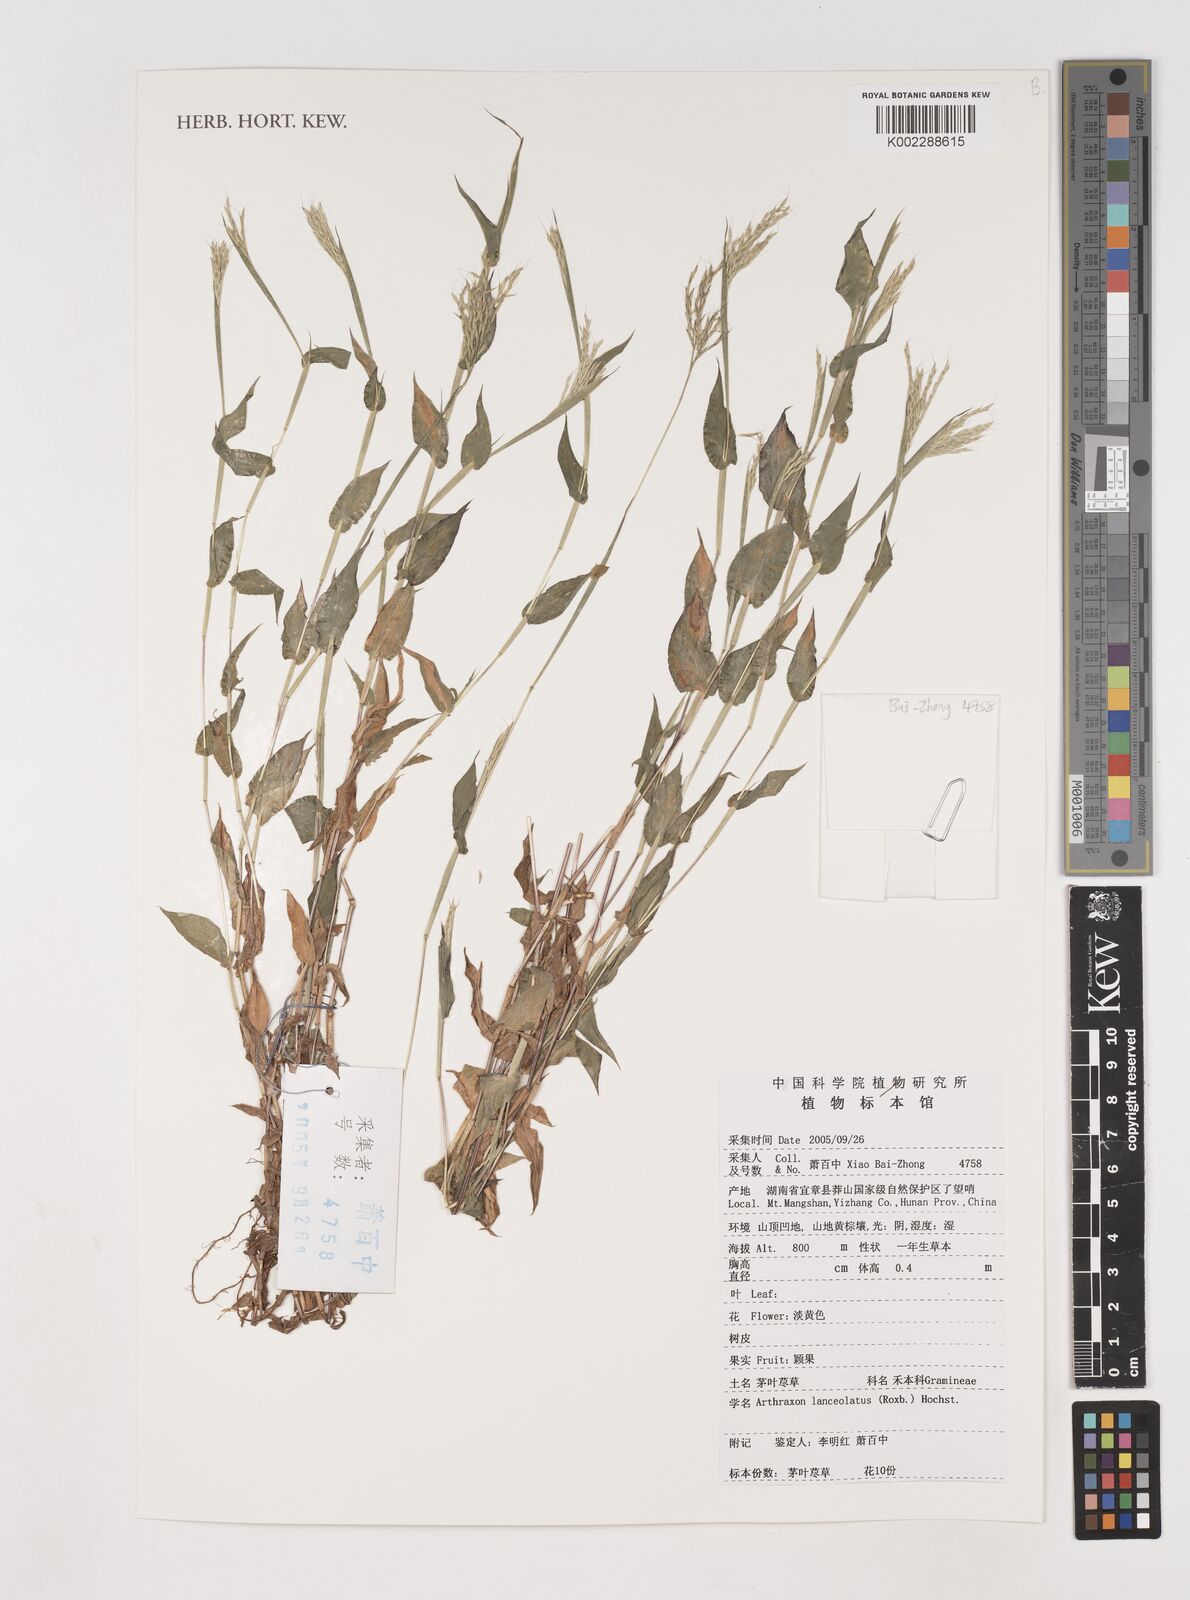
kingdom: Plantae
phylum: Tracheophyta
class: Liliopsida
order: Poales
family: Poaceae
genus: Arthraxon
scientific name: Arthraxon lanceolatus
